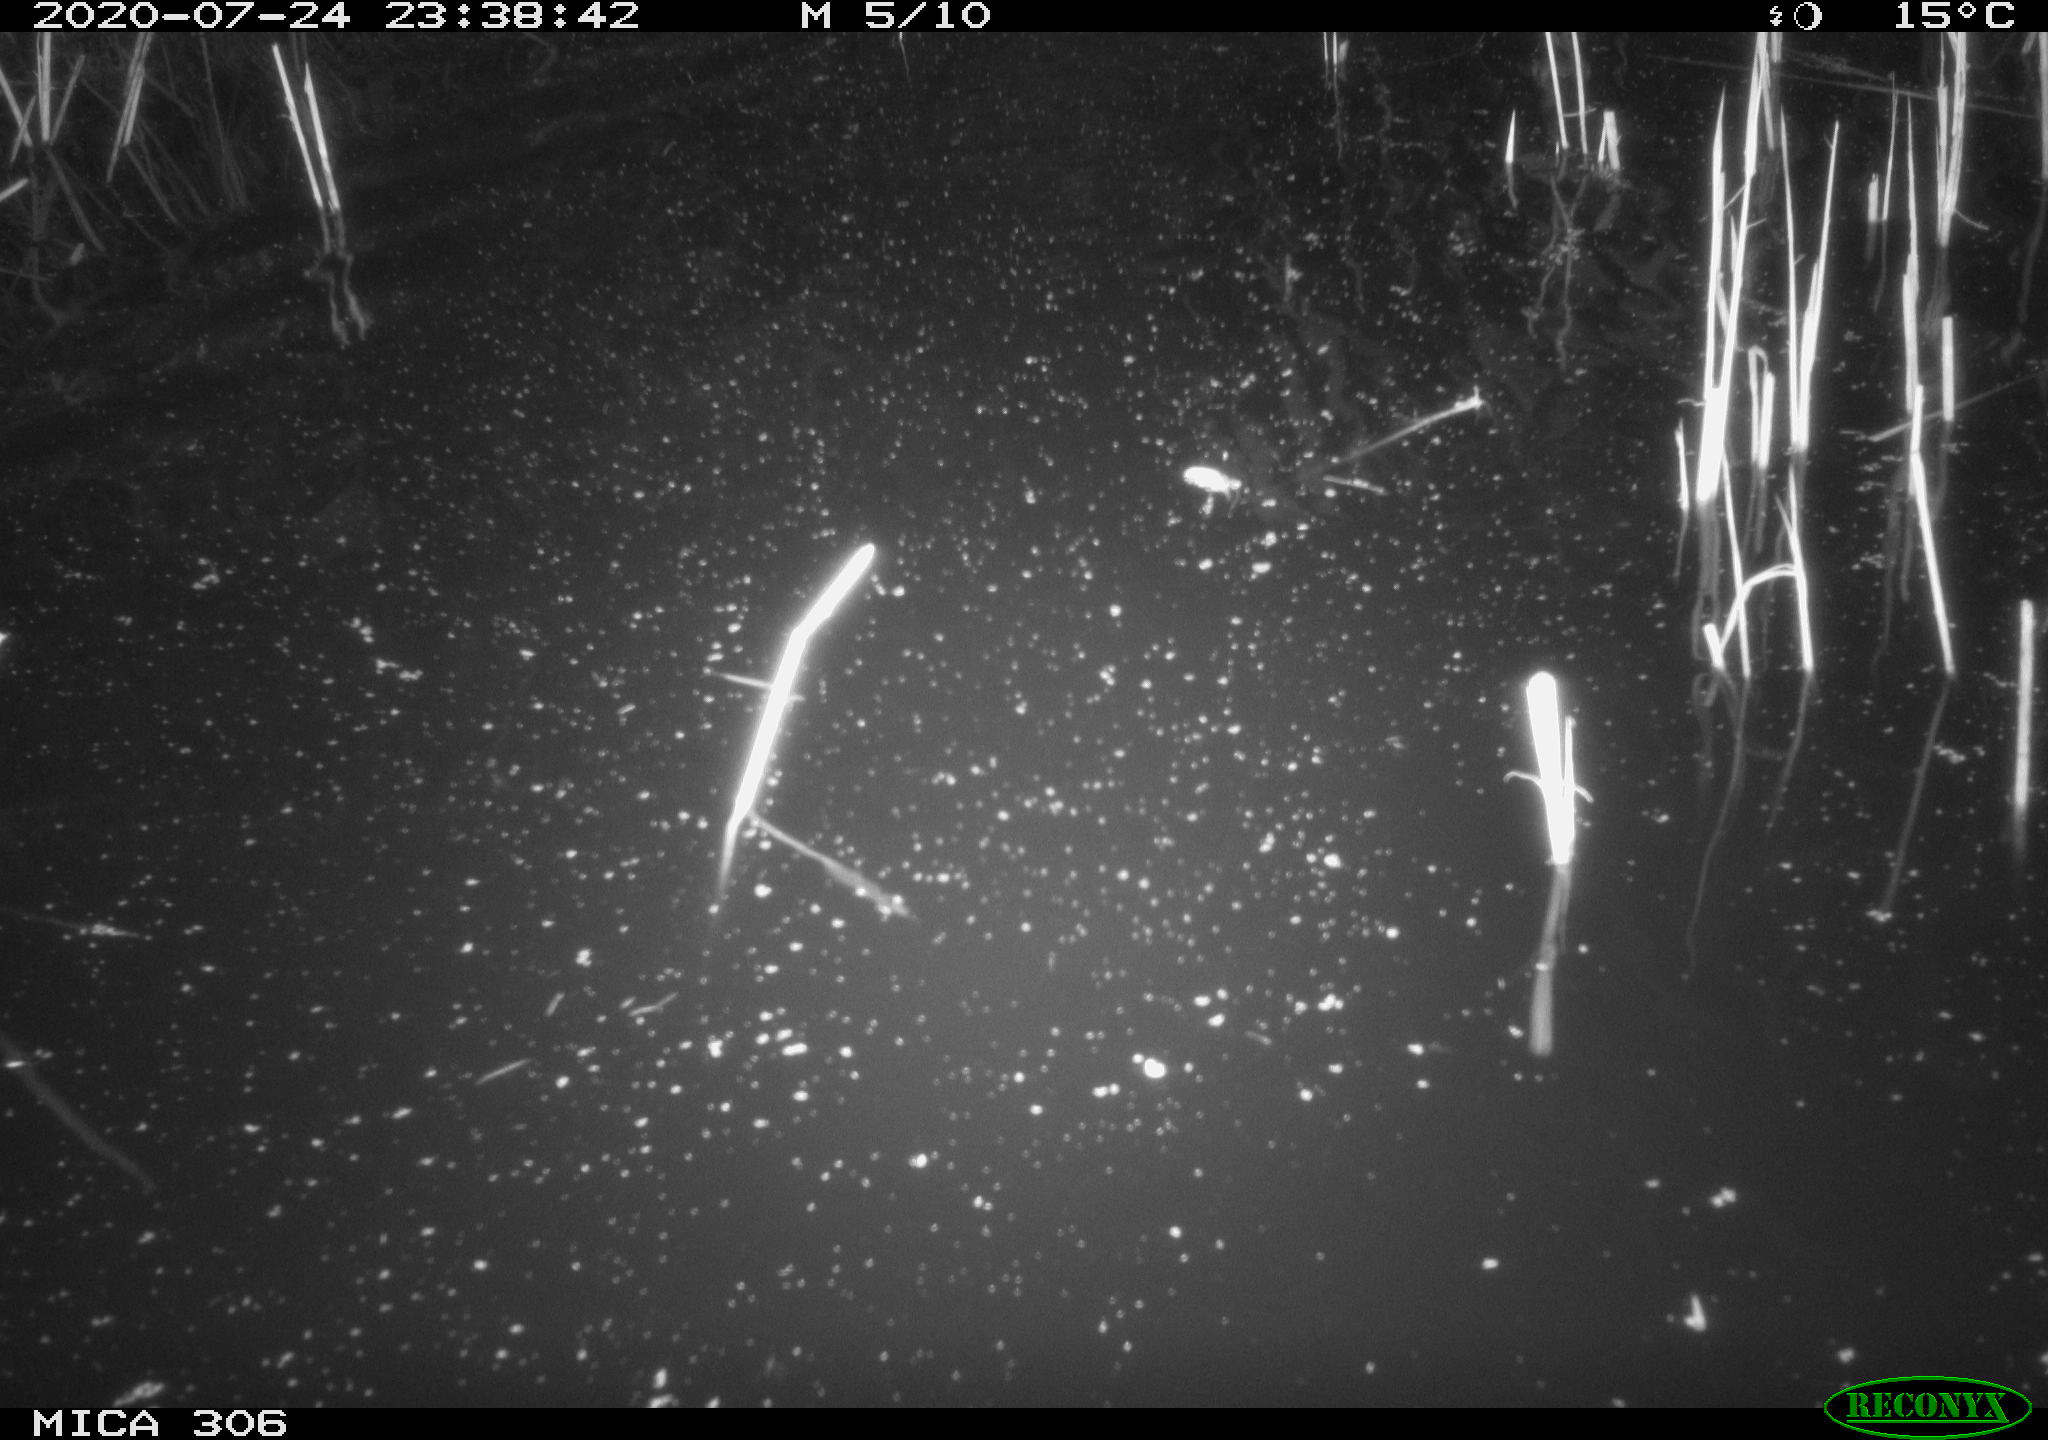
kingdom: Animalia
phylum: Chordata
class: Mammalia
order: Rodentia
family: Cricetidae
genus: Ondatra
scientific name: Ondatra zibethicus
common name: Muskrat
